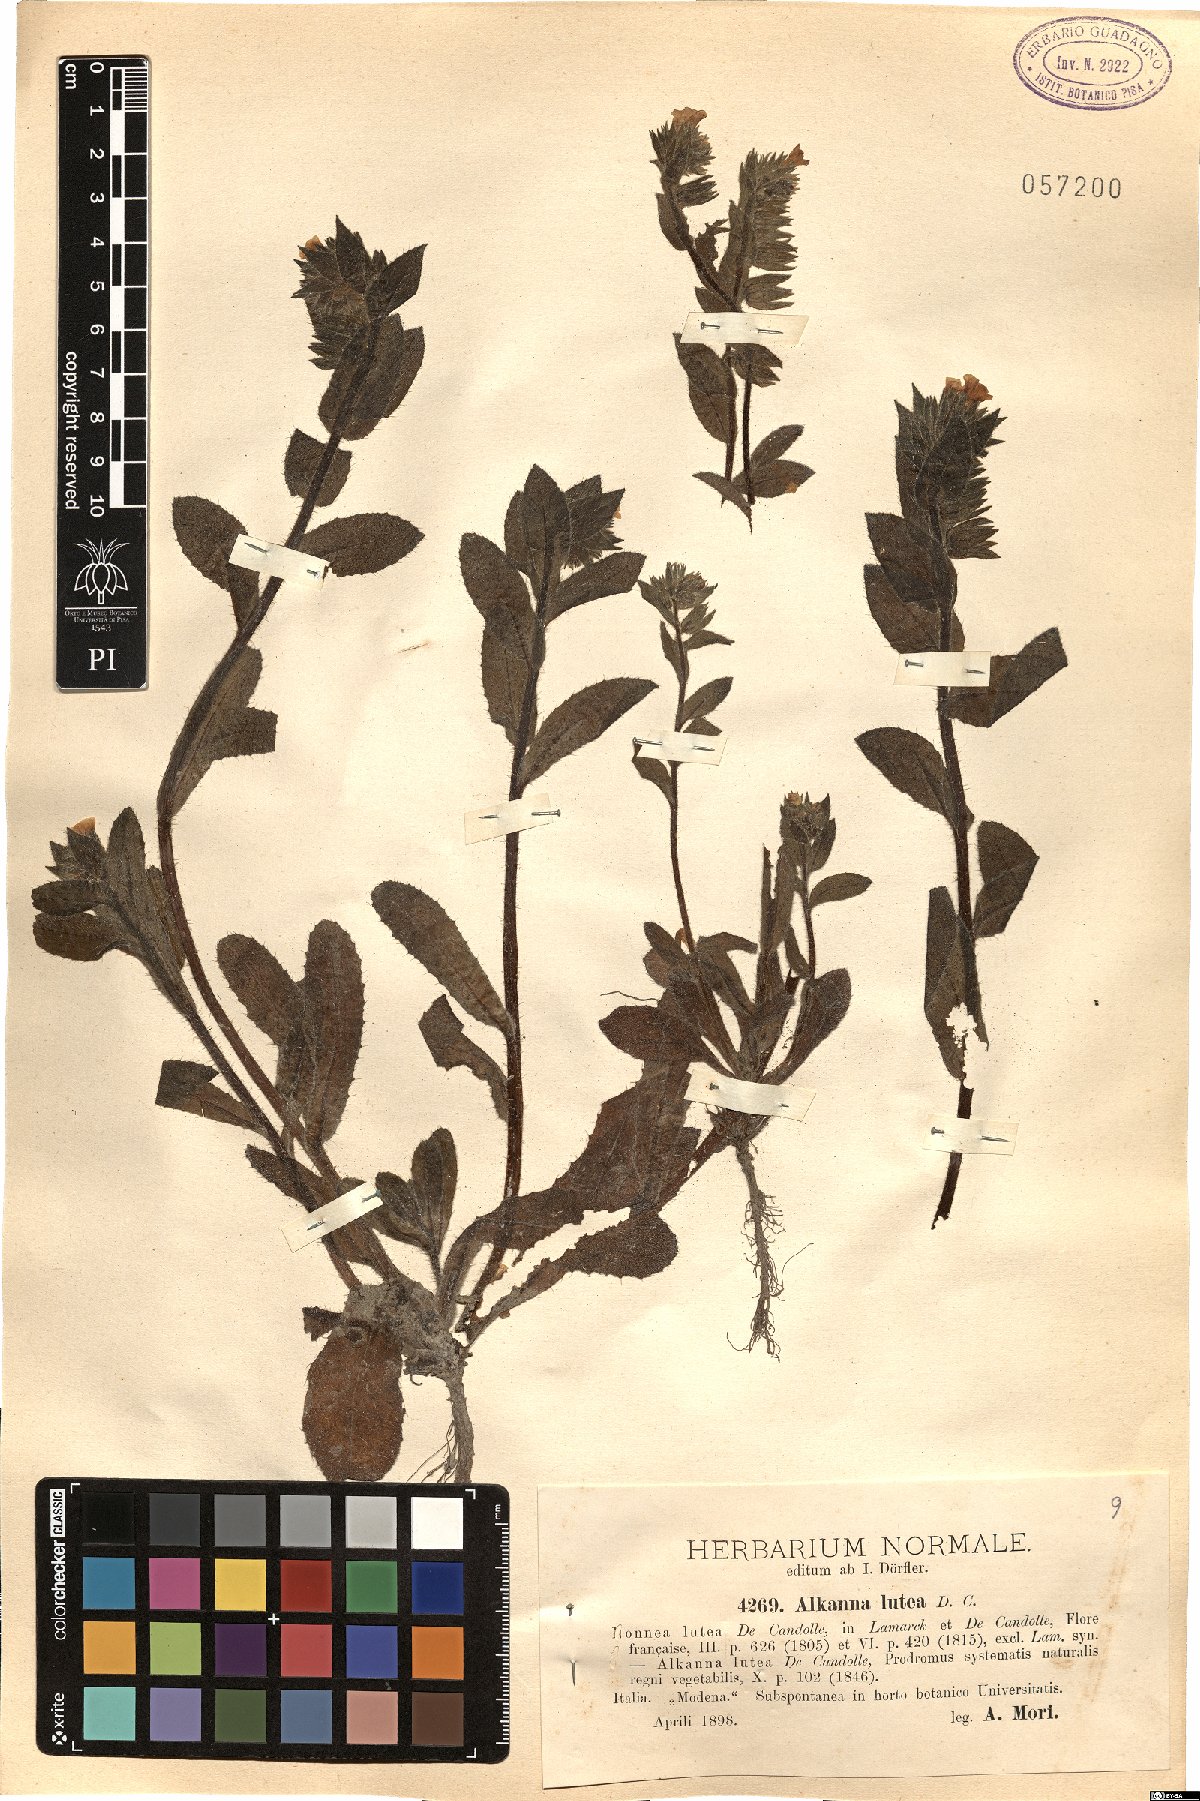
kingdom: Plantae
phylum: Tracheophyta
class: Magnoliopsida
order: Boraginales
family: Boraginaceae
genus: Alkanna
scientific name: Alkanna lutea
